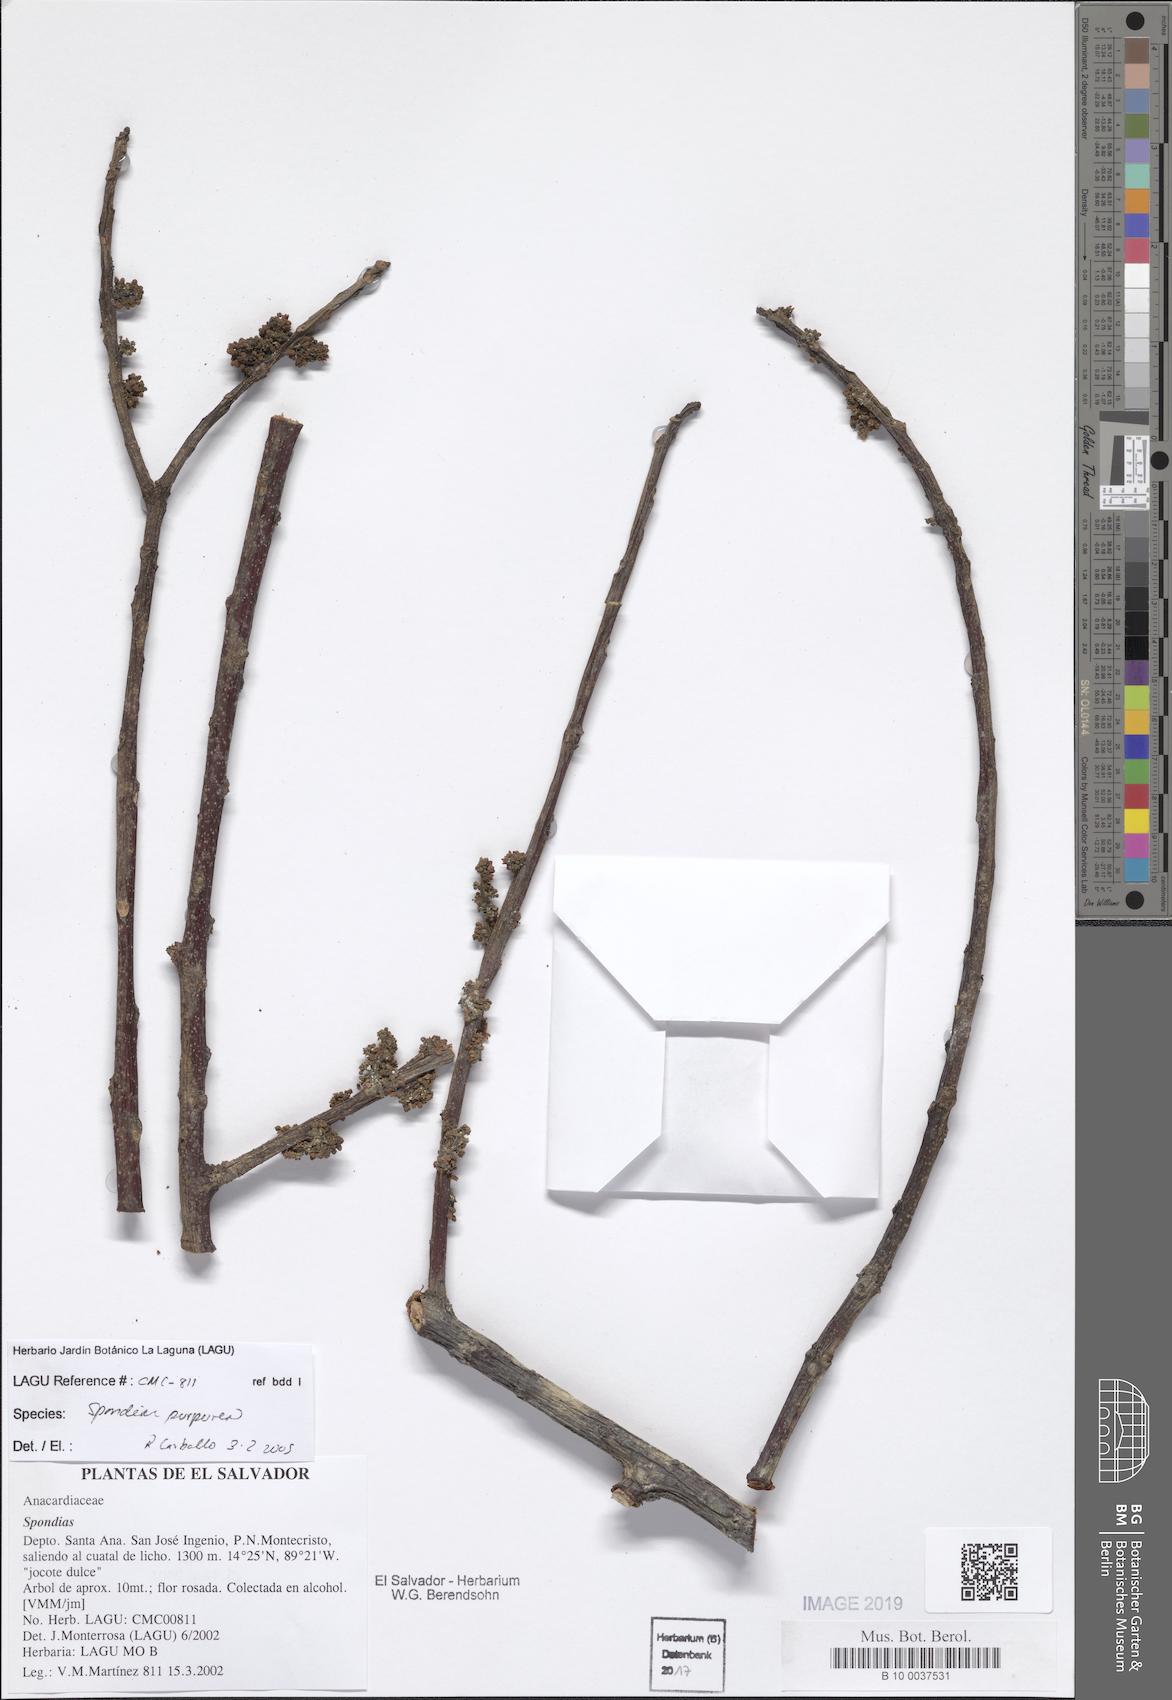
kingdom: Plantae
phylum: Tracheophyta
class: Magnoliopsida
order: Sapindales
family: Anacardiaceae
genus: Spondias
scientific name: Spondias purpurea
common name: Purple mombin
